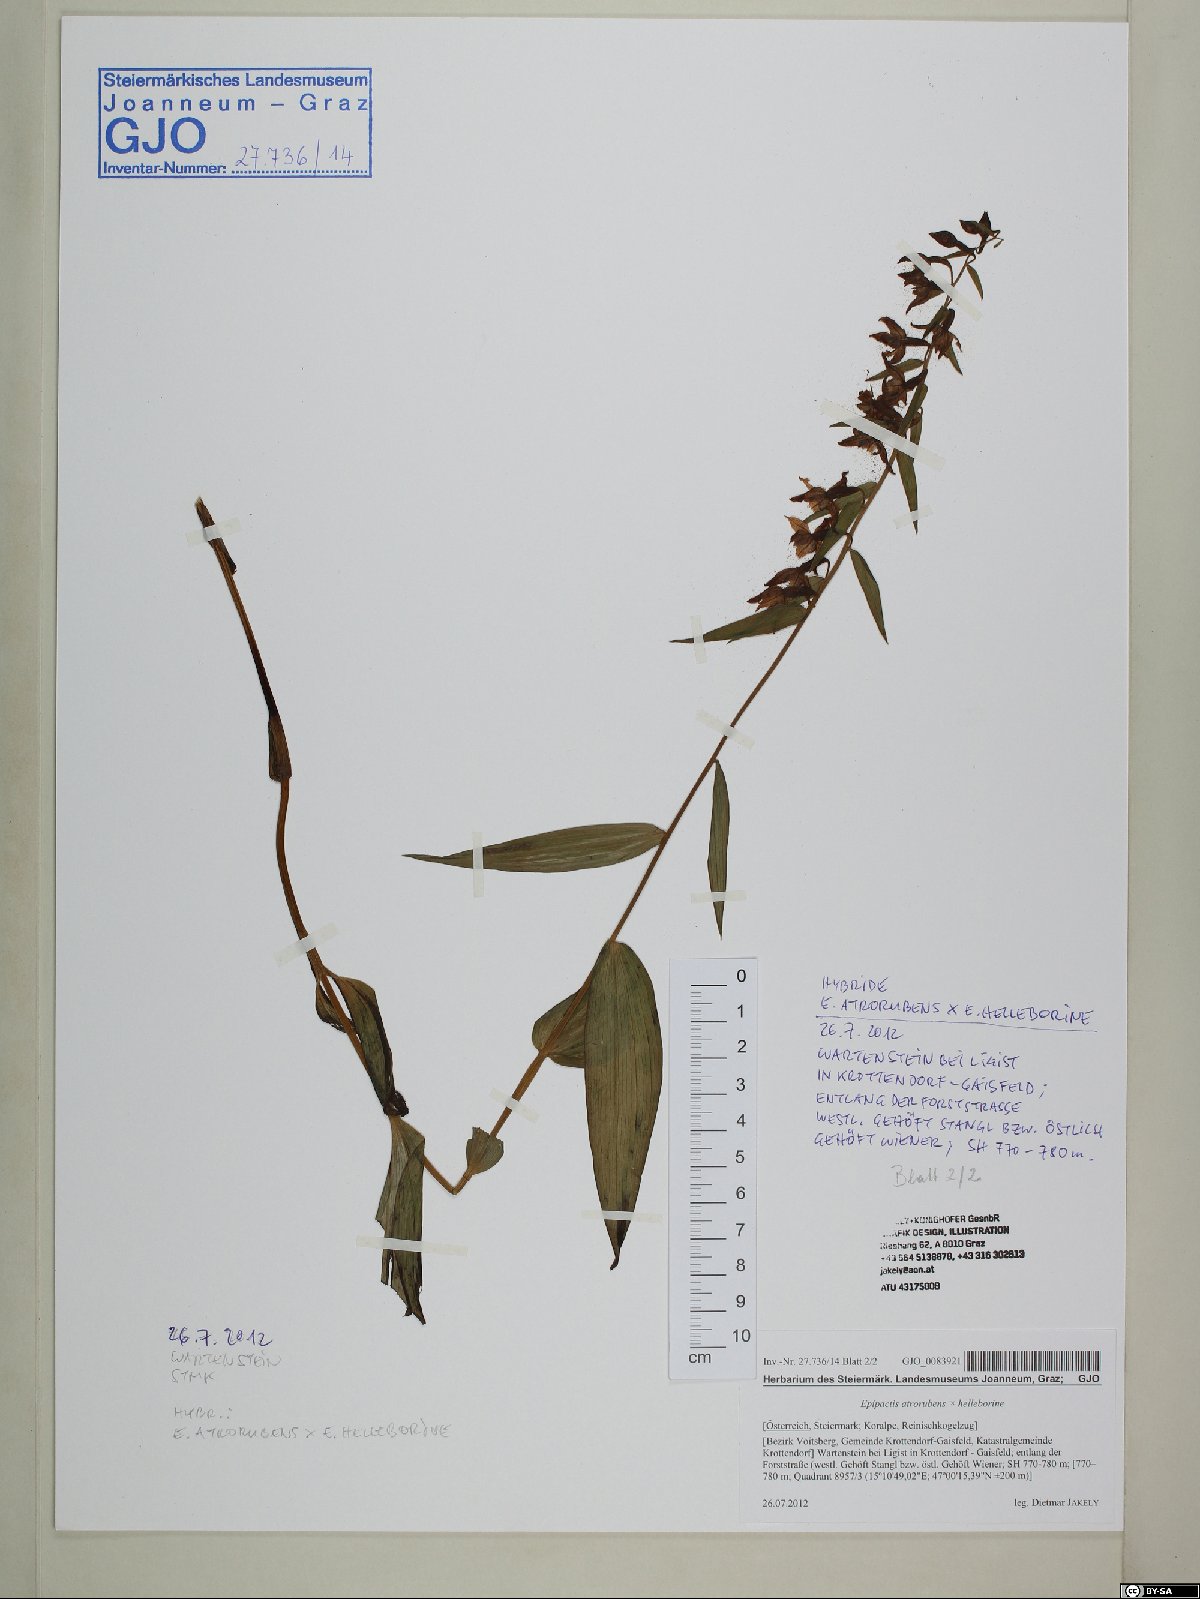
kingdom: Plantae
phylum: Tracheophyta
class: Liliopsida
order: Asparagales
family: Orchidaceae
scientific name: Orchidaceae
